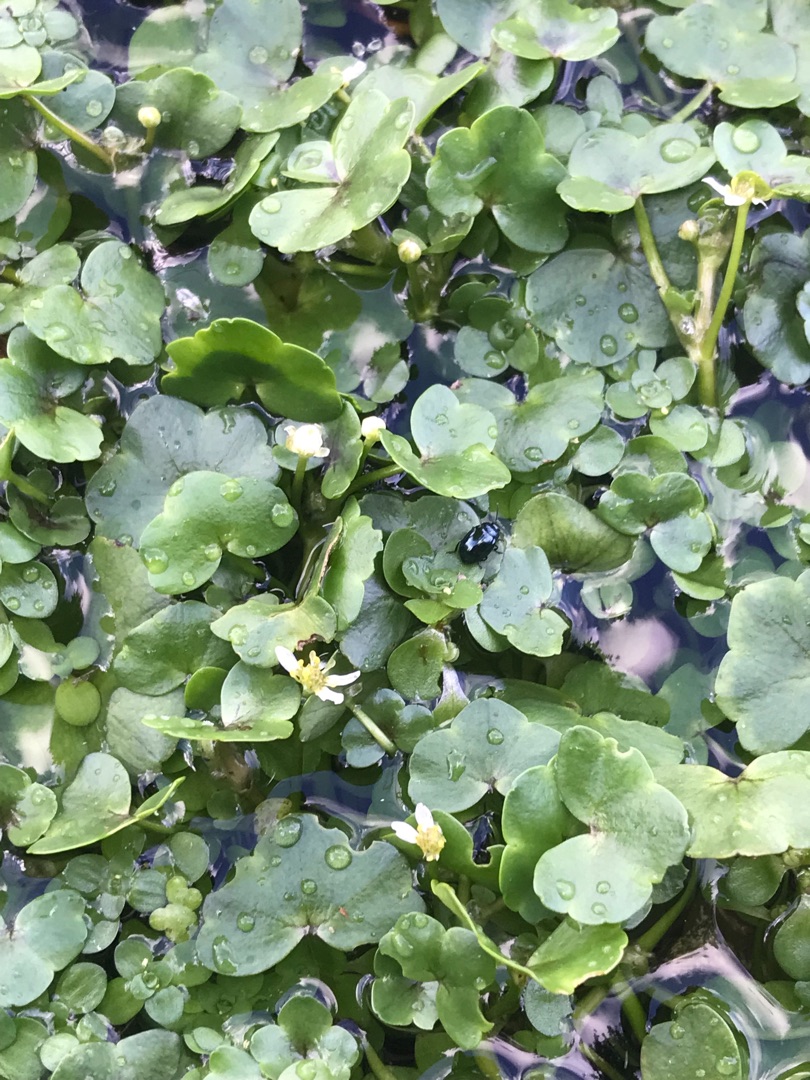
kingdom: Plantae
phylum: Tracheophyta
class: Magnoliopsida
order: Ranunculales
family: Ranunculaceae
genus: Ranunculus
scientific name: Ranunculus hederaceus
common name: Vedbend-vandranunkel
